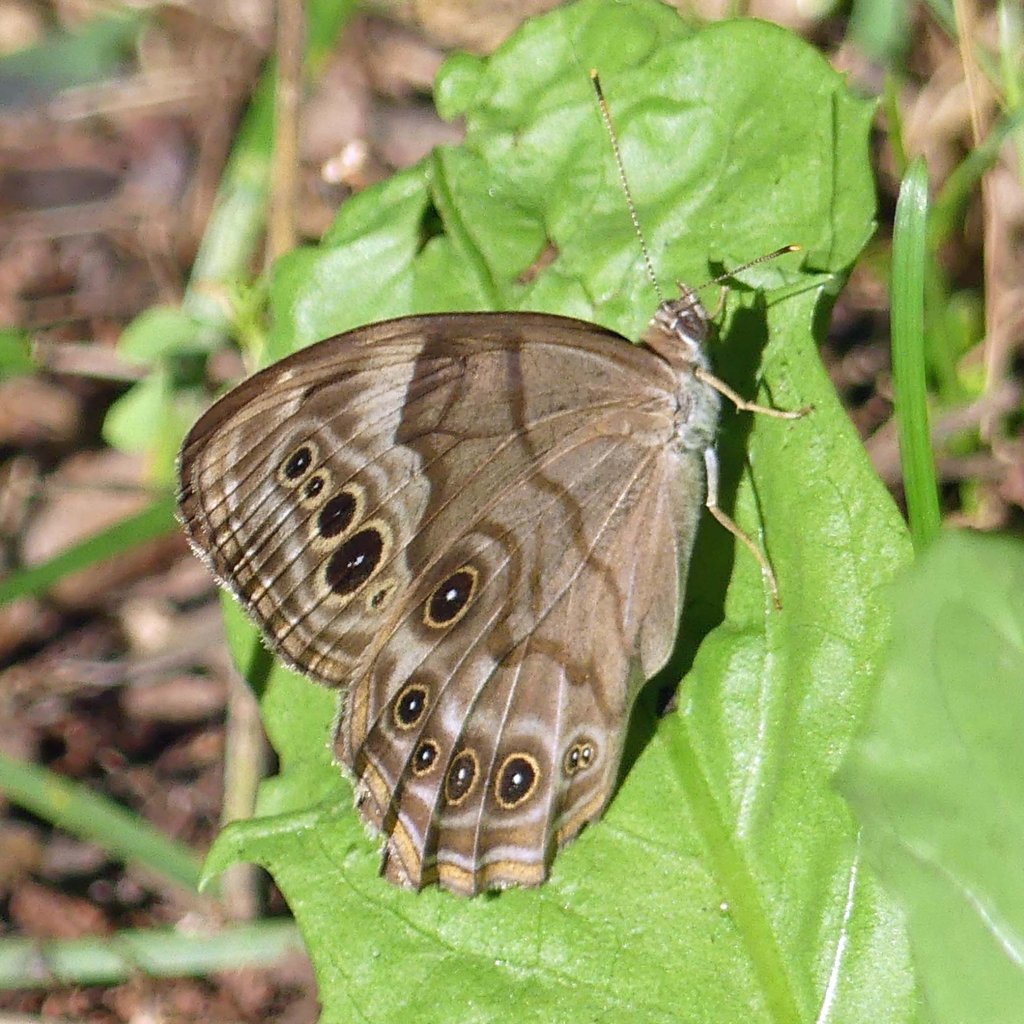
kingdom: Animalia
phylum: Arthropoda
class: Insecta
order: Lepidoptera
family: Nymphalidae
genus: Lethe
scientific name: Lethe anthedon
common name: Northern Pearly-Eye
